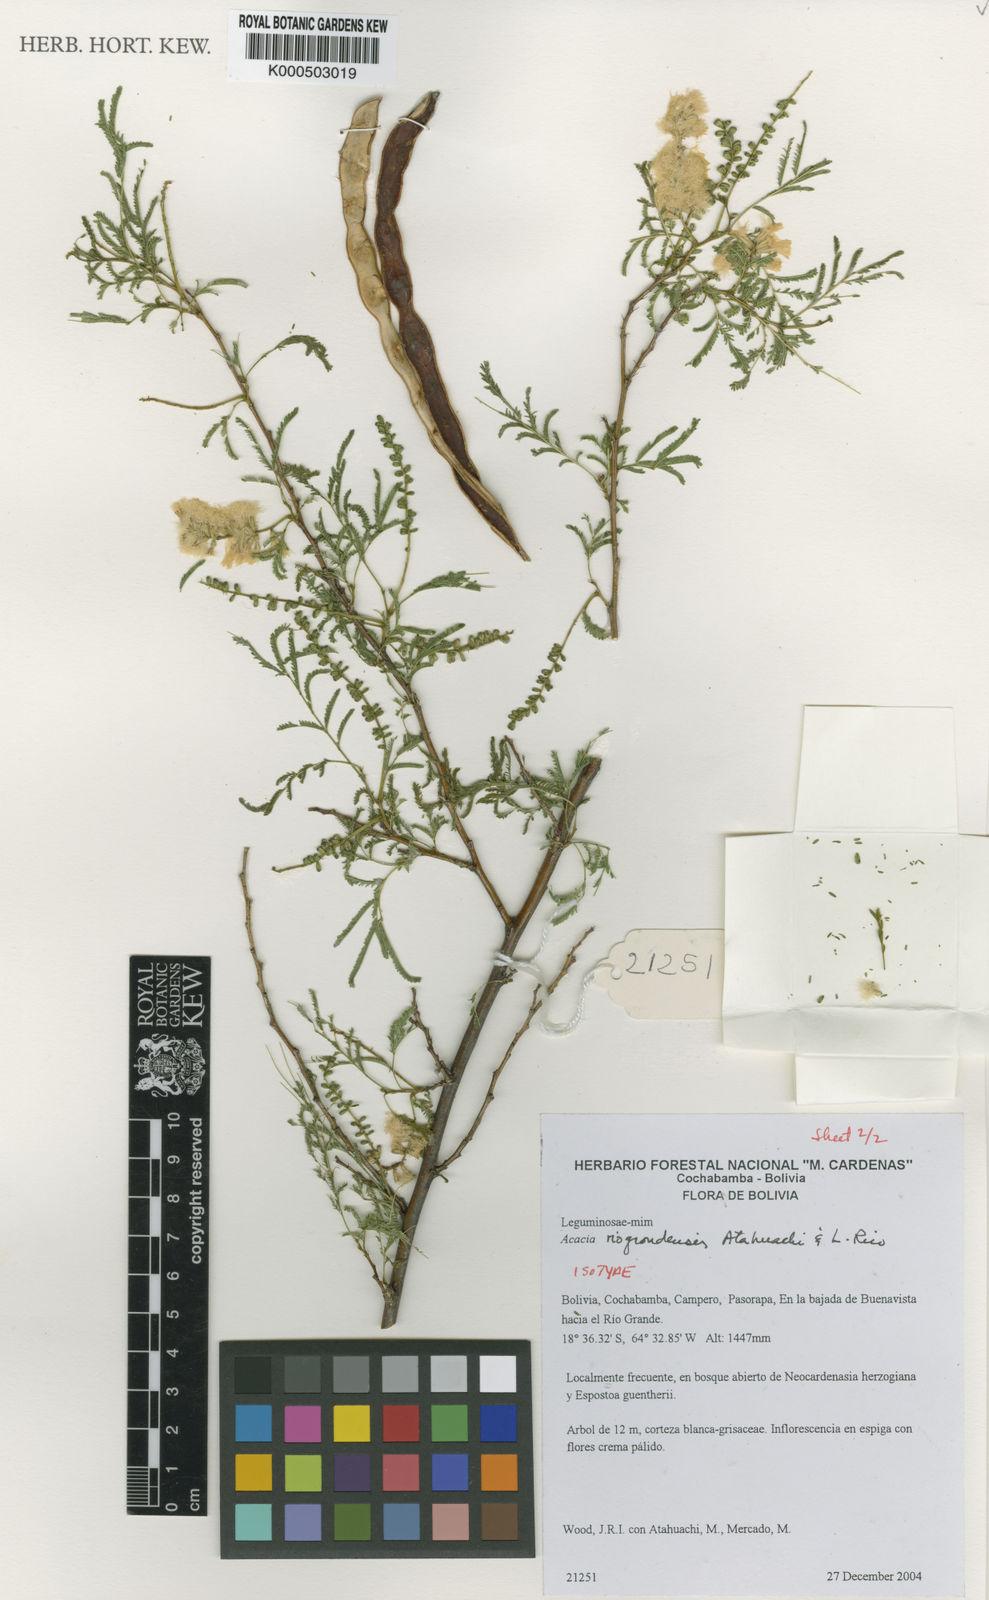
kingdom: Plantae
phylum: Tracheophyta
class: Magnoliopsida
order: Fabales
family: Fabaceae
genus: Pseudosenegalia
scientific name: Pseudosenegalia riograndensis
